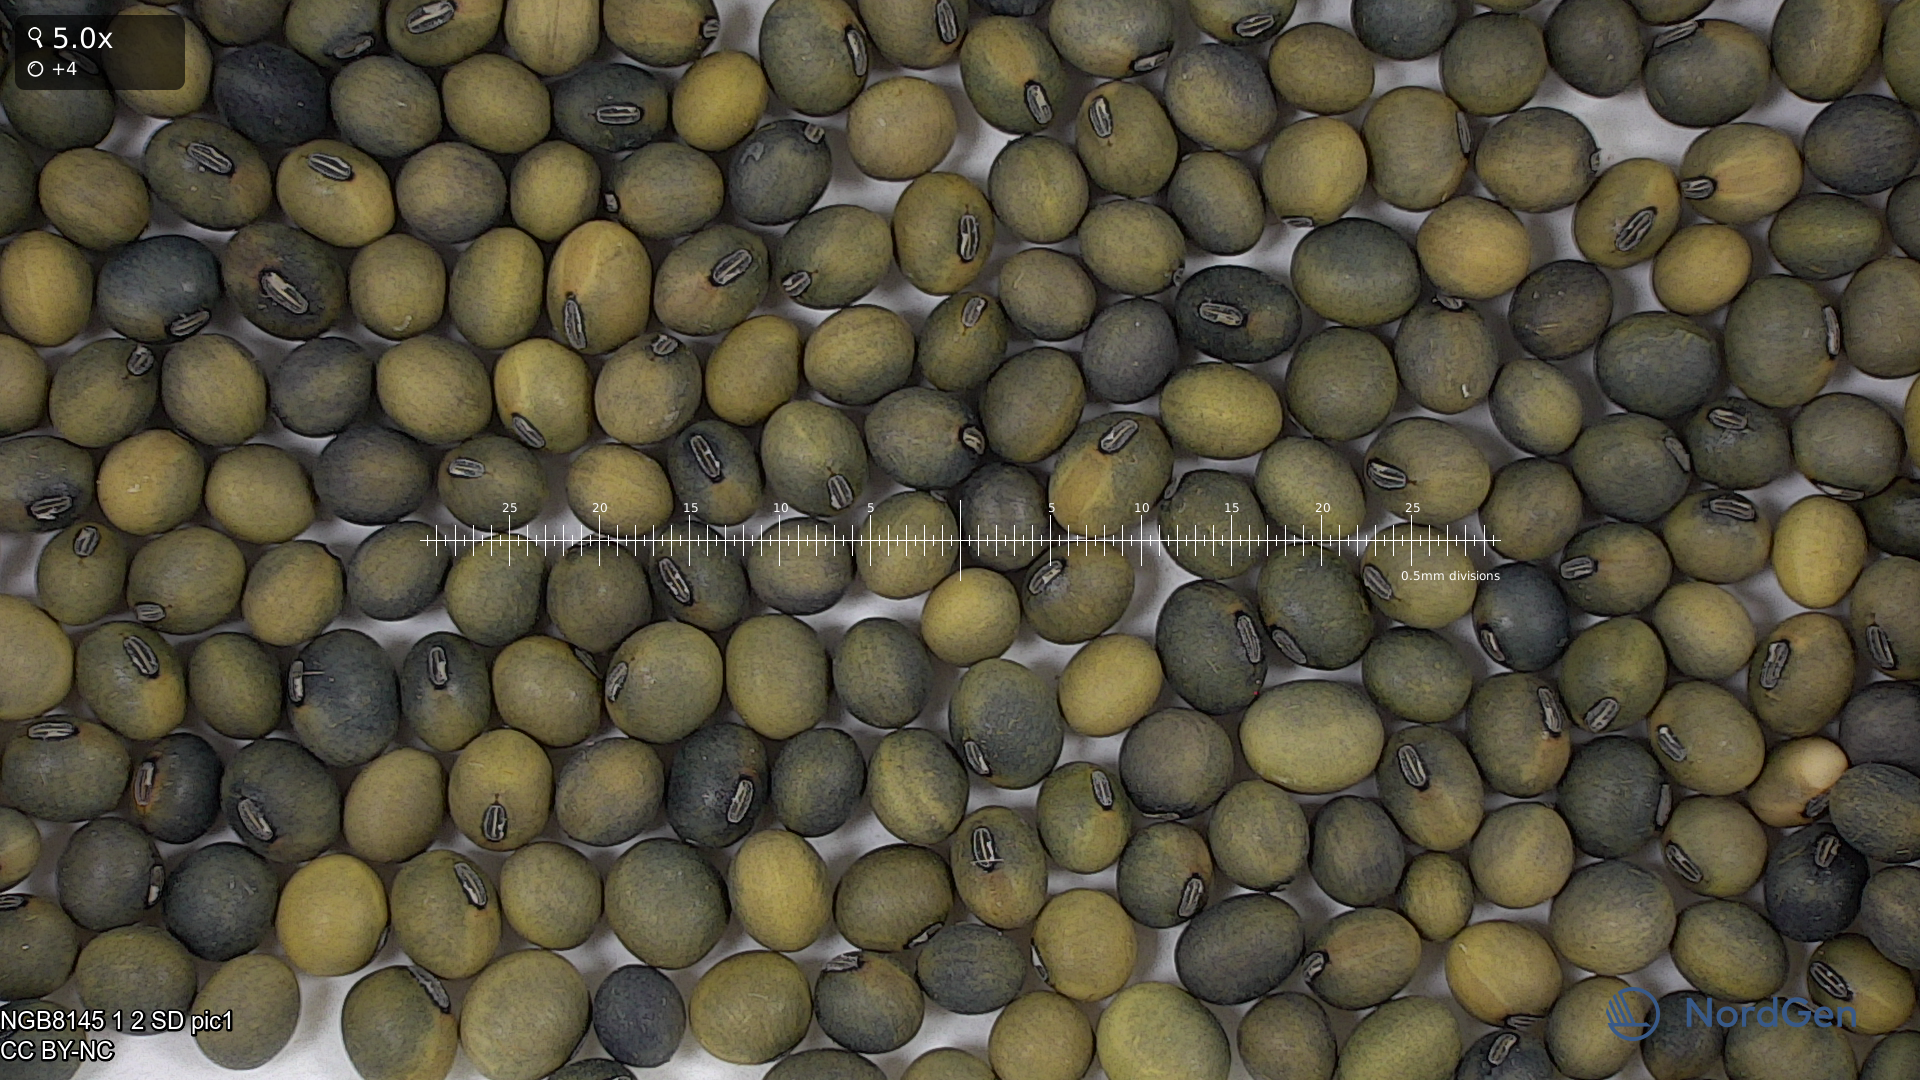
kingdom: Plantae
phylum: Tracheophyta
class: Magnoliopsida
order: Fabales
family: Fabaceae
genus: Glycine
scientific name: Glycine max
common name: Soya-bean
